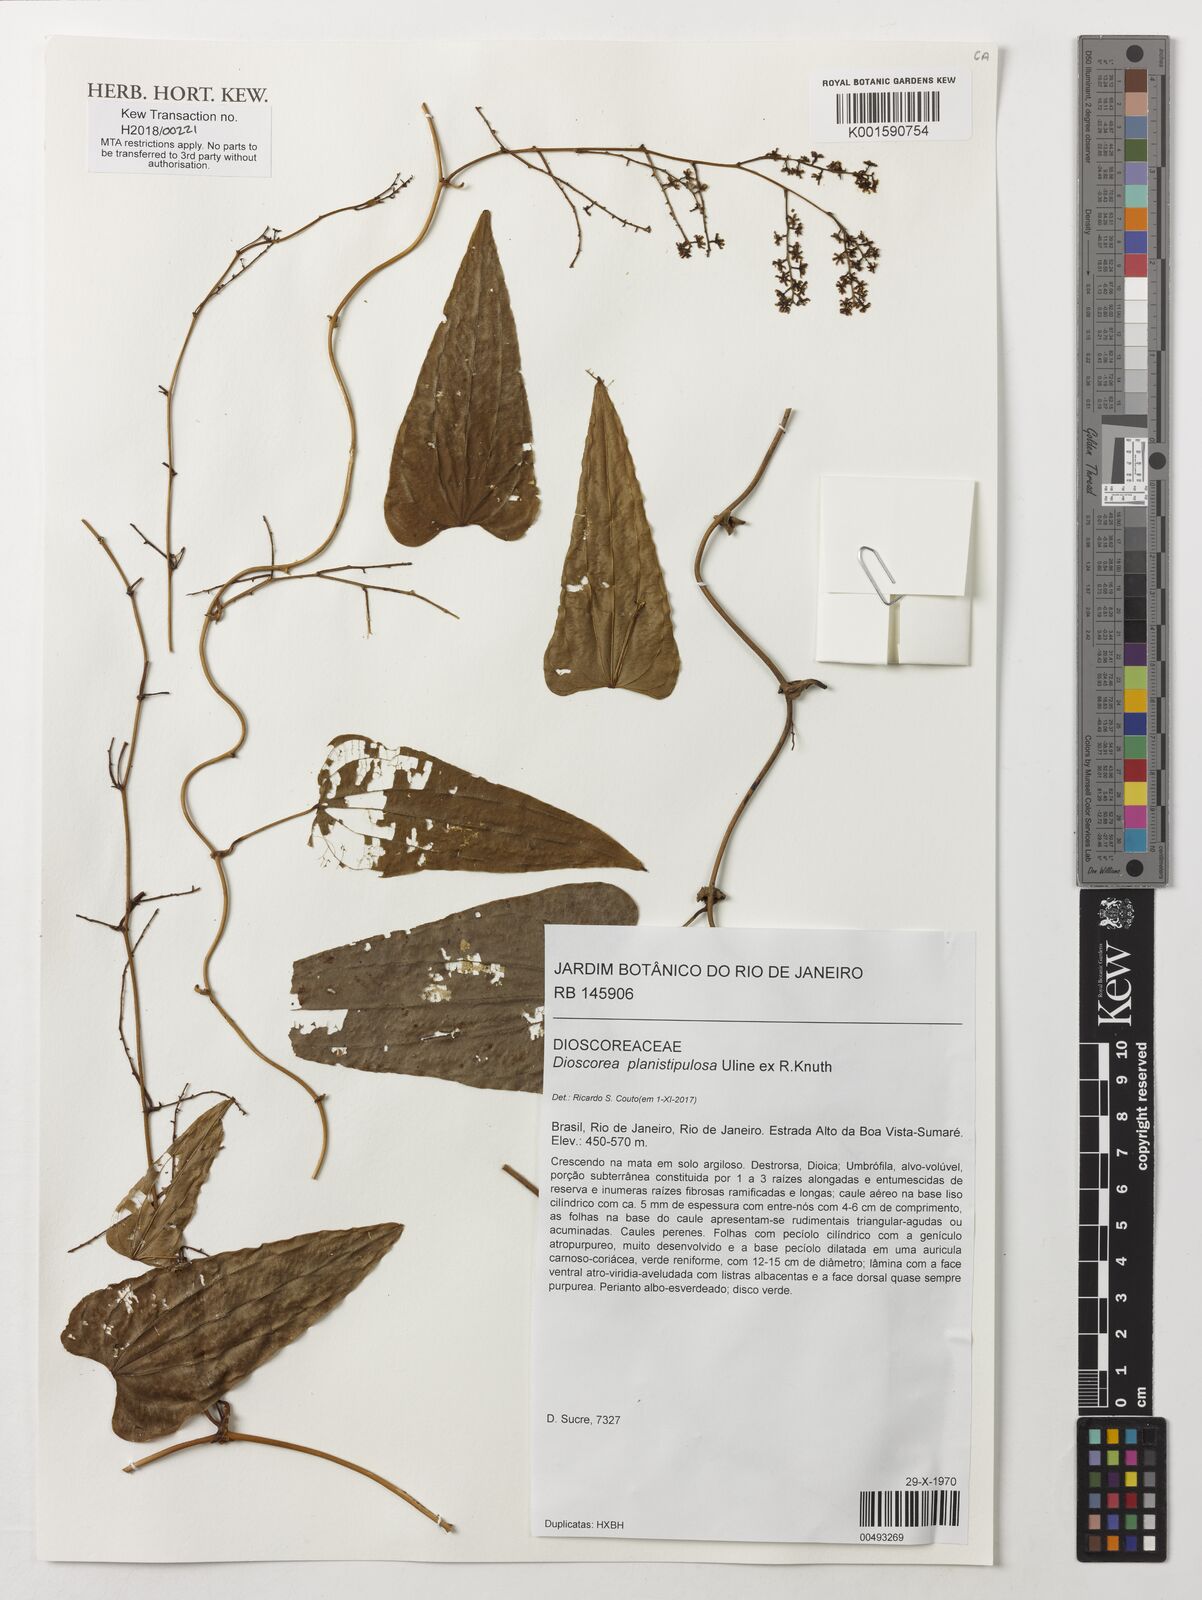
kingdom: Plantae
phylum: Tracheophyta
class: Liliopsida
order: Dioscoreales
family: Dioscoreaceae
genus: Dioscorea
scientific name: Dioscorea planistipulosa
